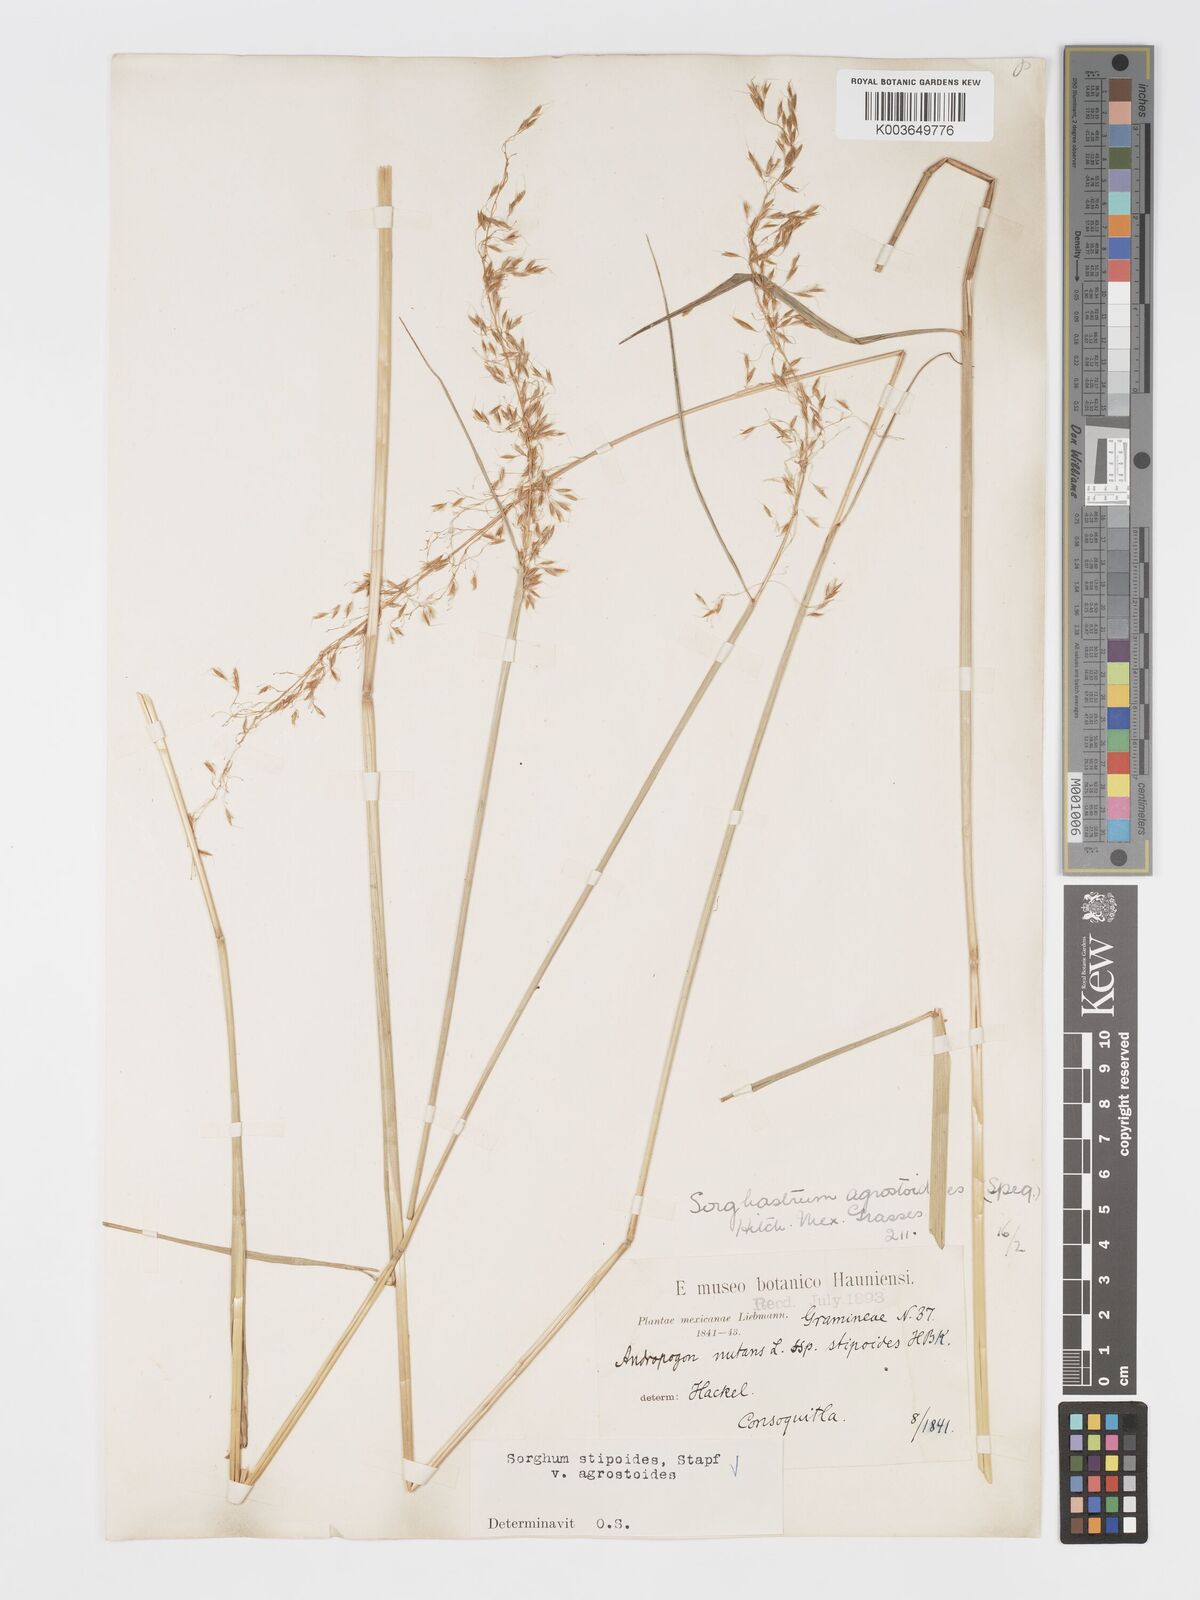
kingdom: Plantae
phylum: Tracheophyta
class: Liliopsida
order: Poales
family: Poaceae
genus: Sorghastrum
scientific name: Sorghastrum setosum
